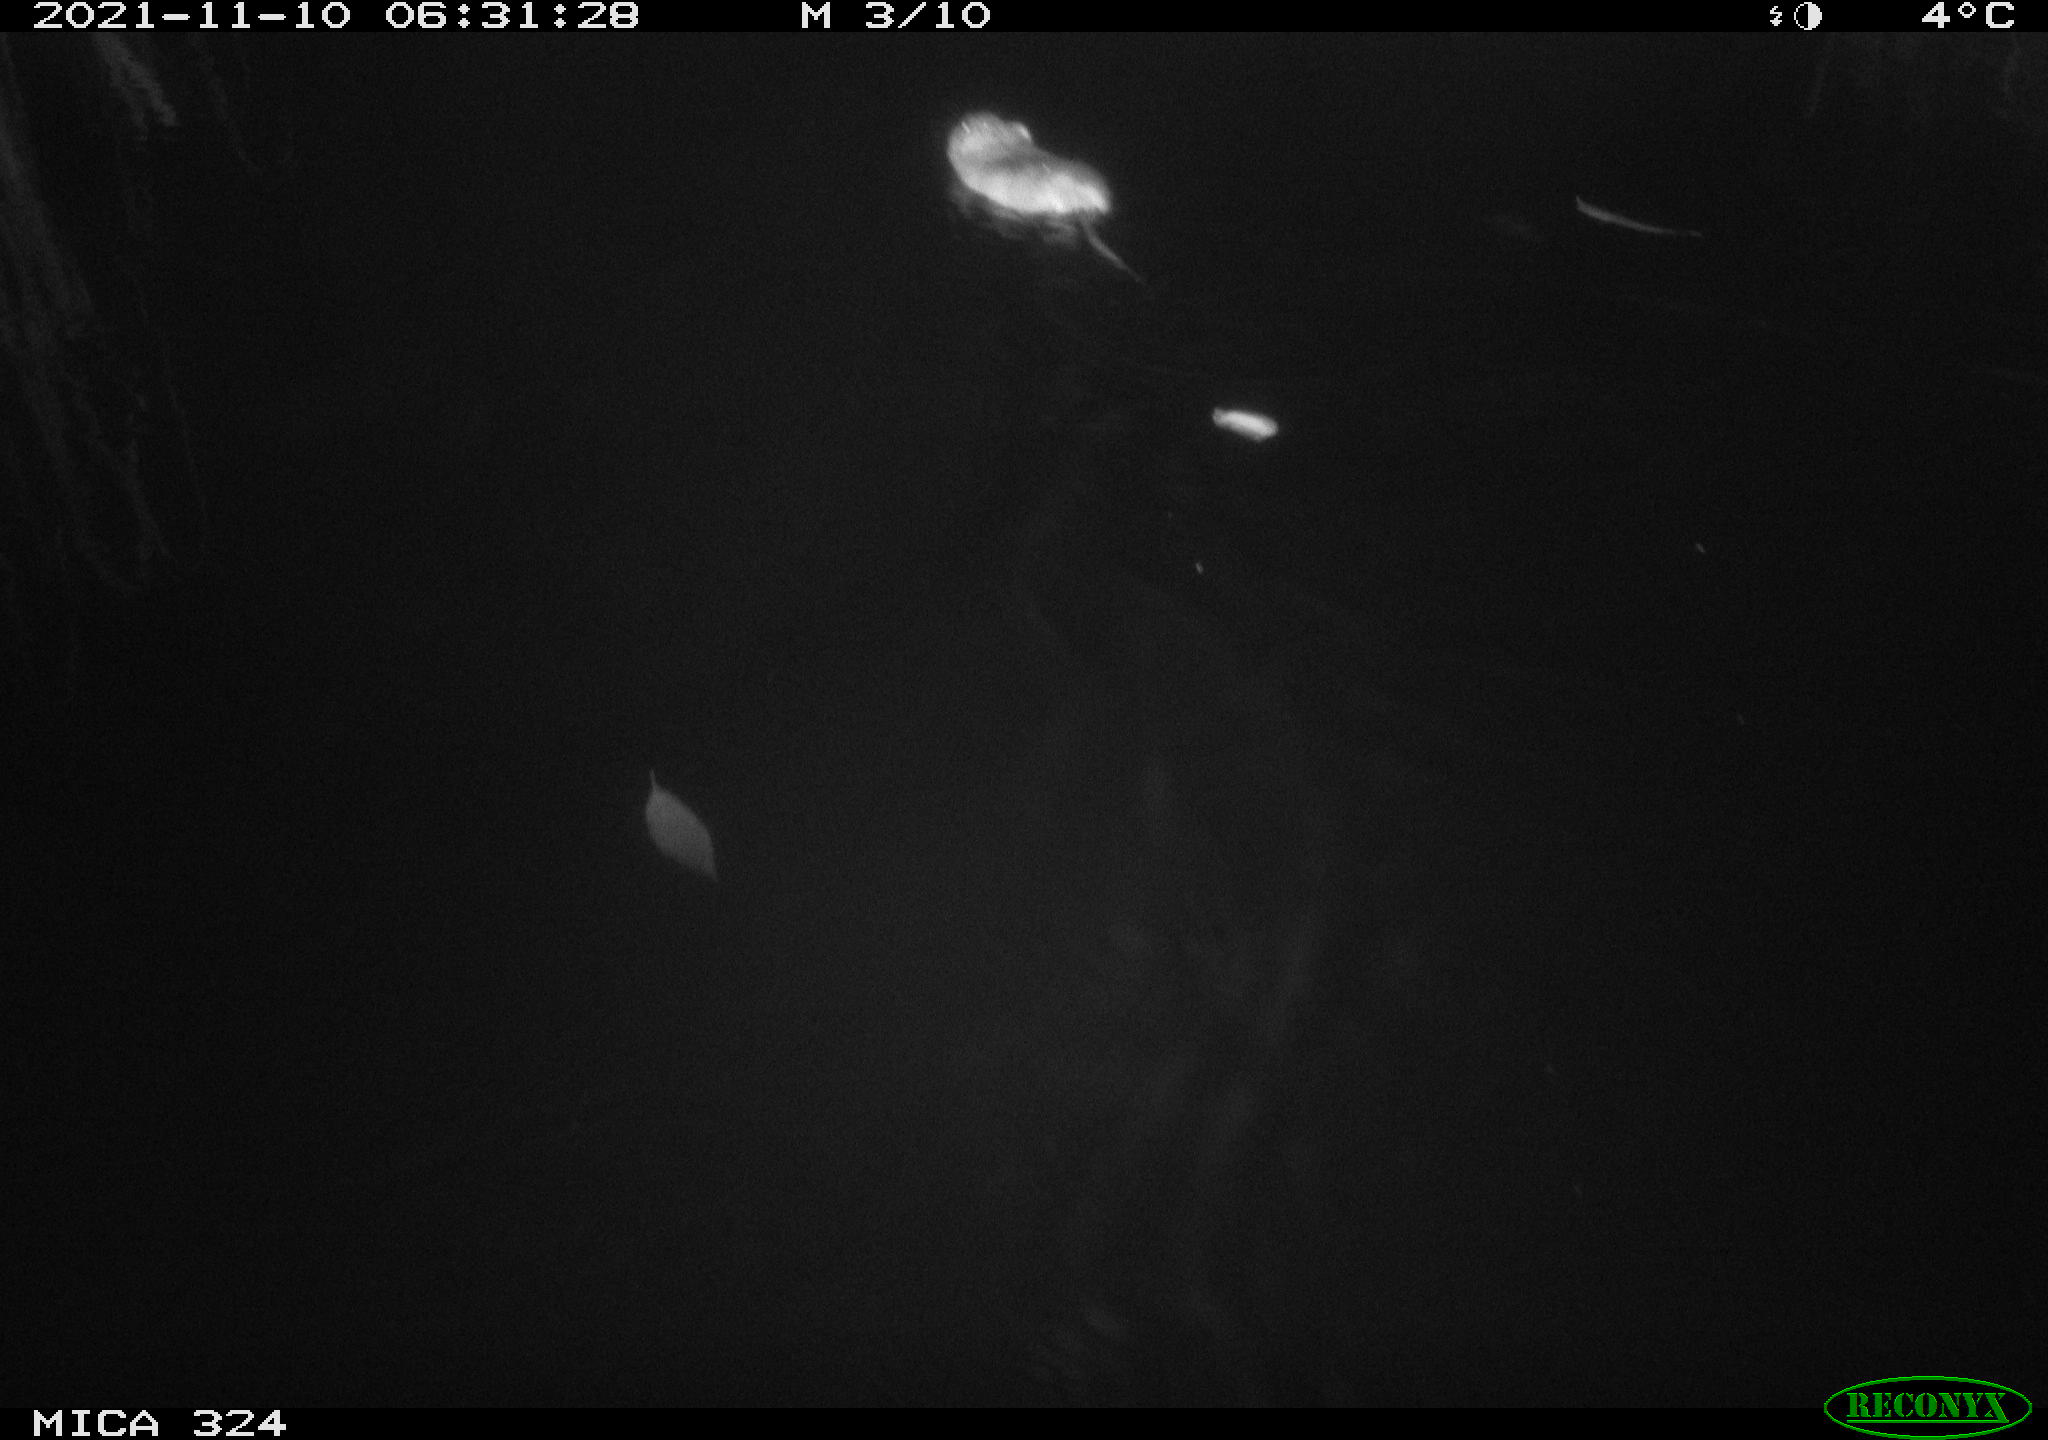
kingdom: Animalia
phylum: Chordata
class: Mammalia
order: Rodentia
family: Cricetidae
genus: Ondatra
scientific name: Ondatra zibethicus
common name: Muskrat
